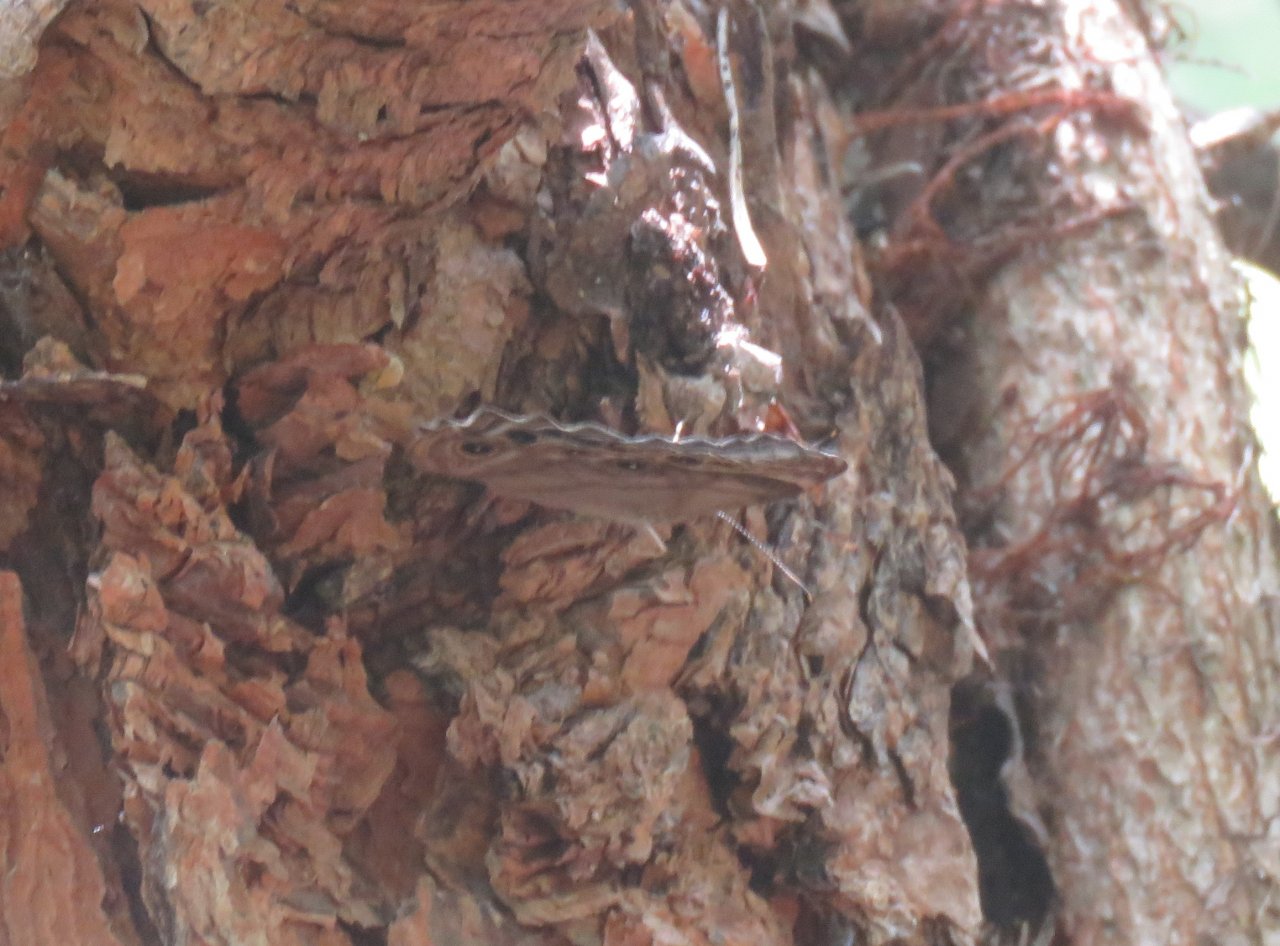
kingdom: Animalia
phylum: Arthropoda
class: Insecta
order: Lepidoptera
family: Nymphalidae
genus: Lethe
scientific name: Lethe anthedon
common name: Northern Pearly-Eye
